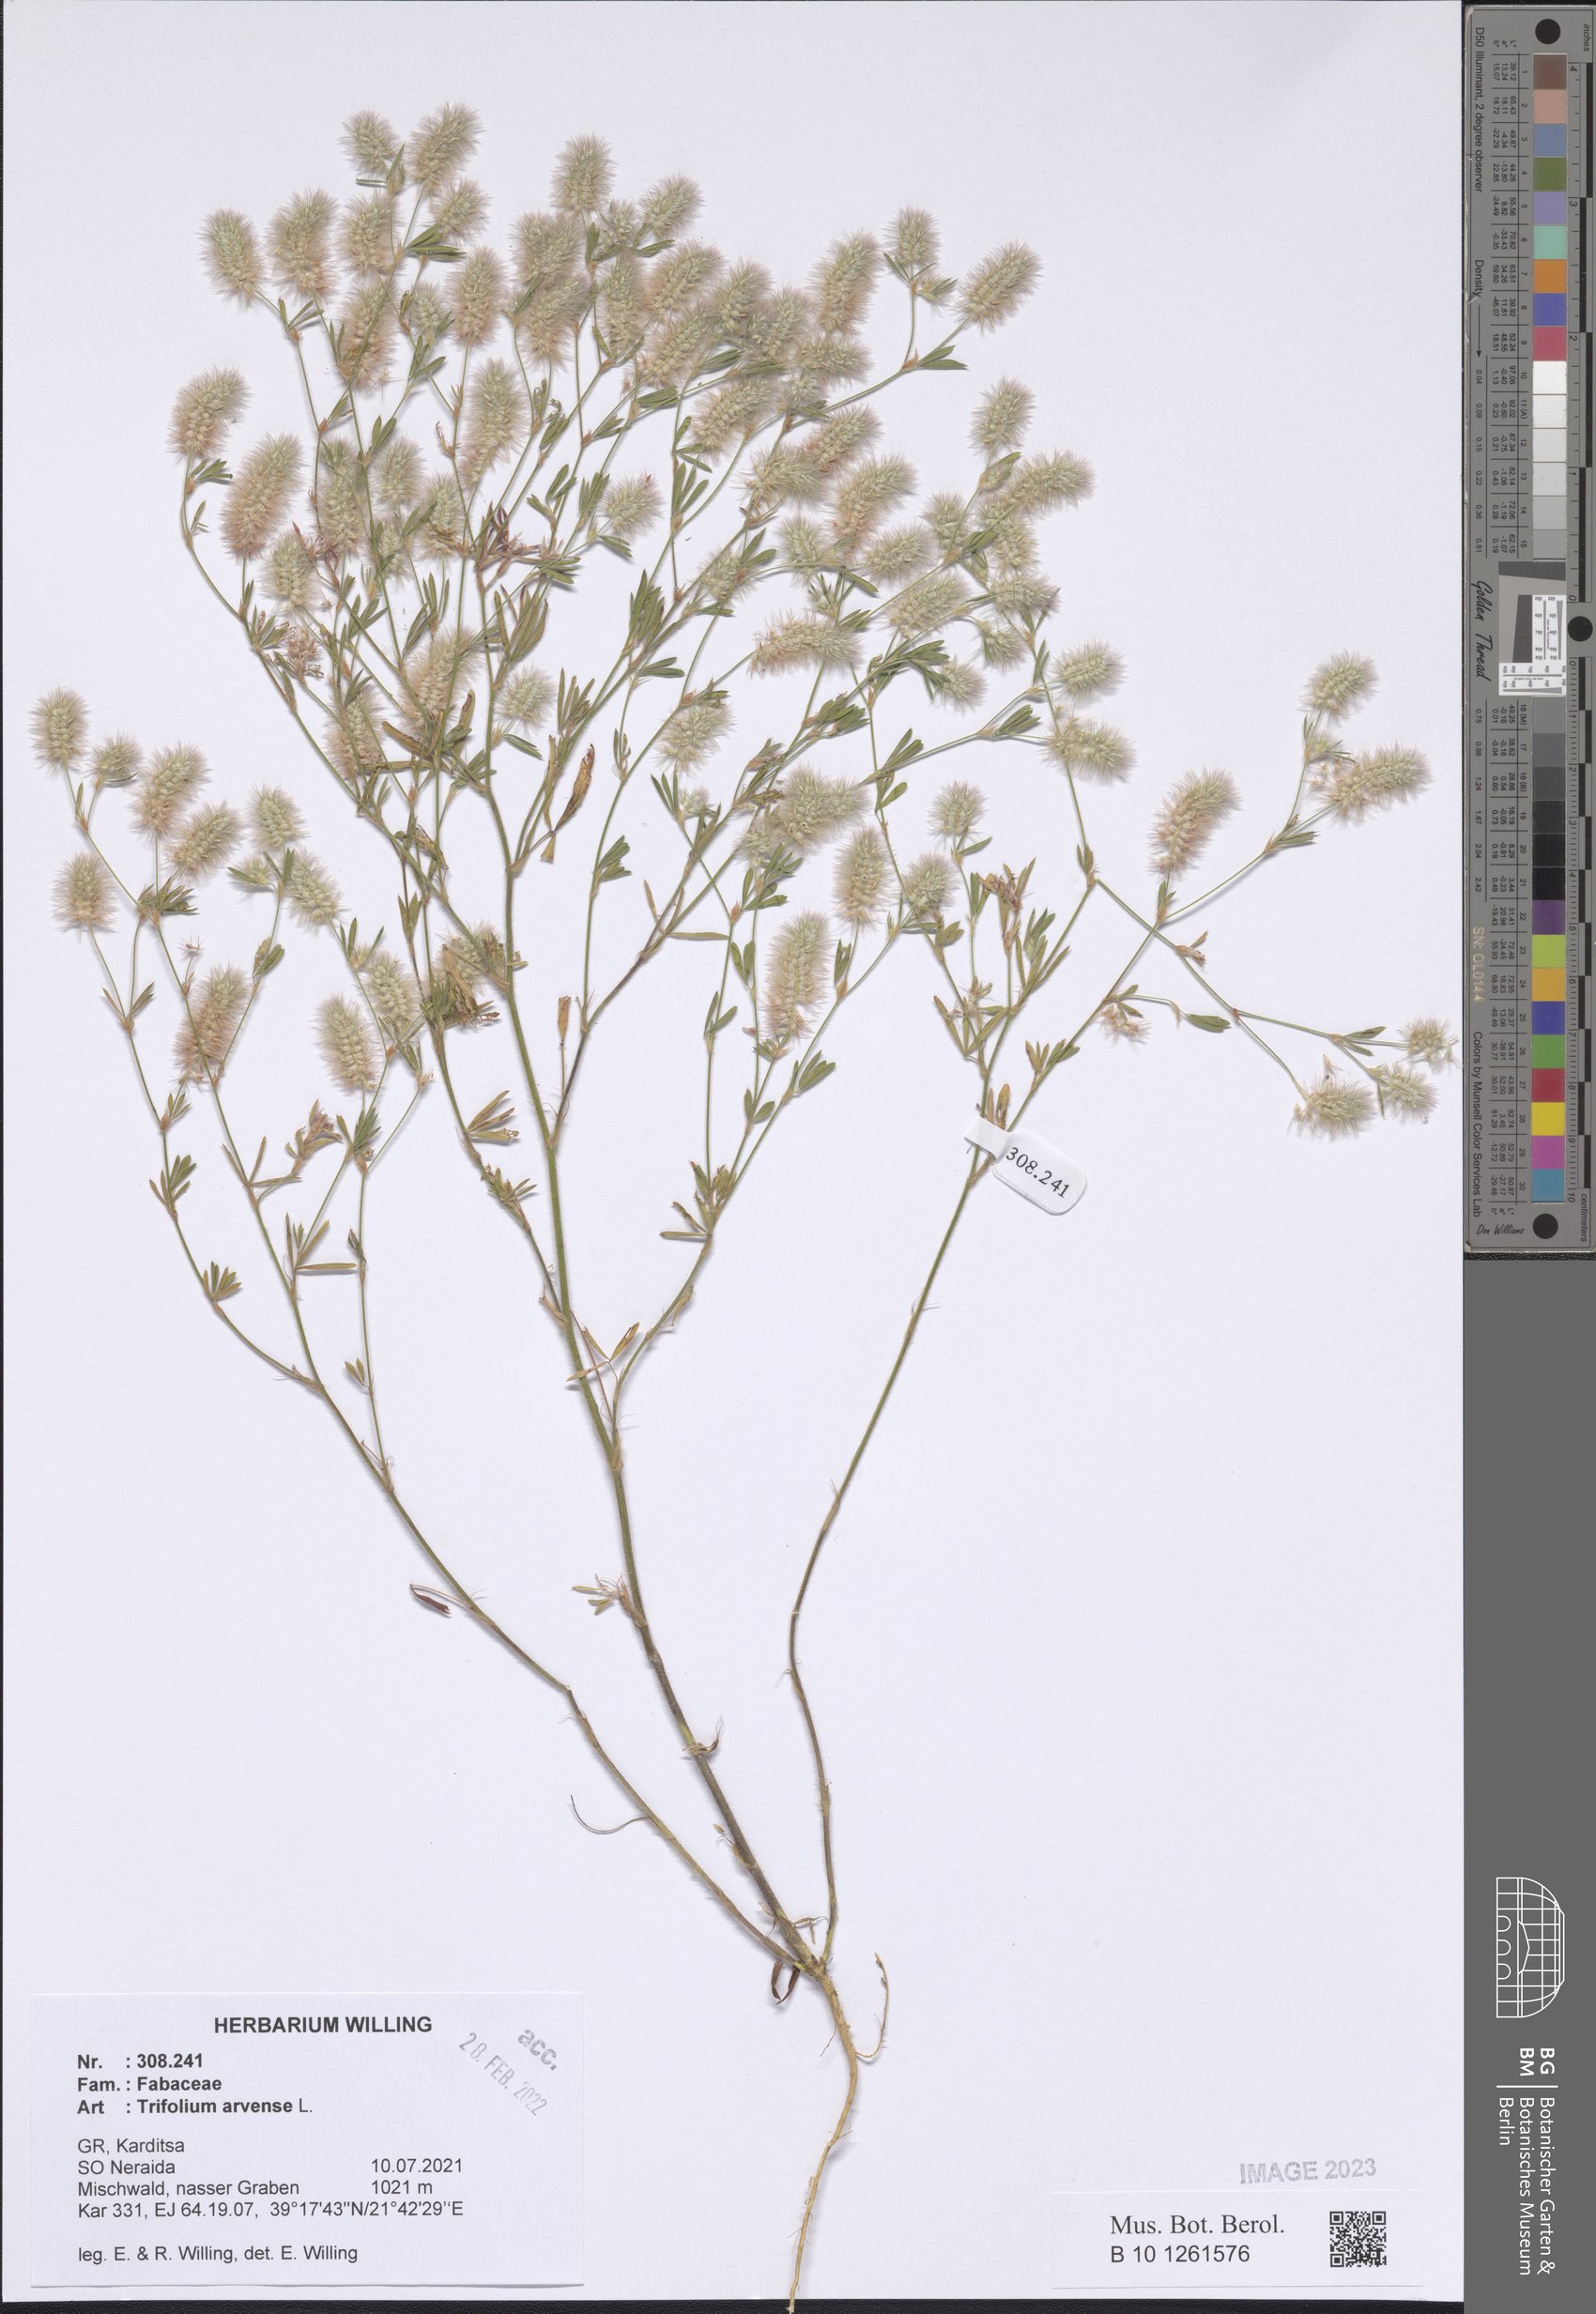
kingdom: Plantae
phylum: Tracheophyta
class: Magnoliopsida
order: Fabales
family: Fabaceae
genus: Trifolium
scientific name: Trifolium arvense
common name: Hare's-foot clover
